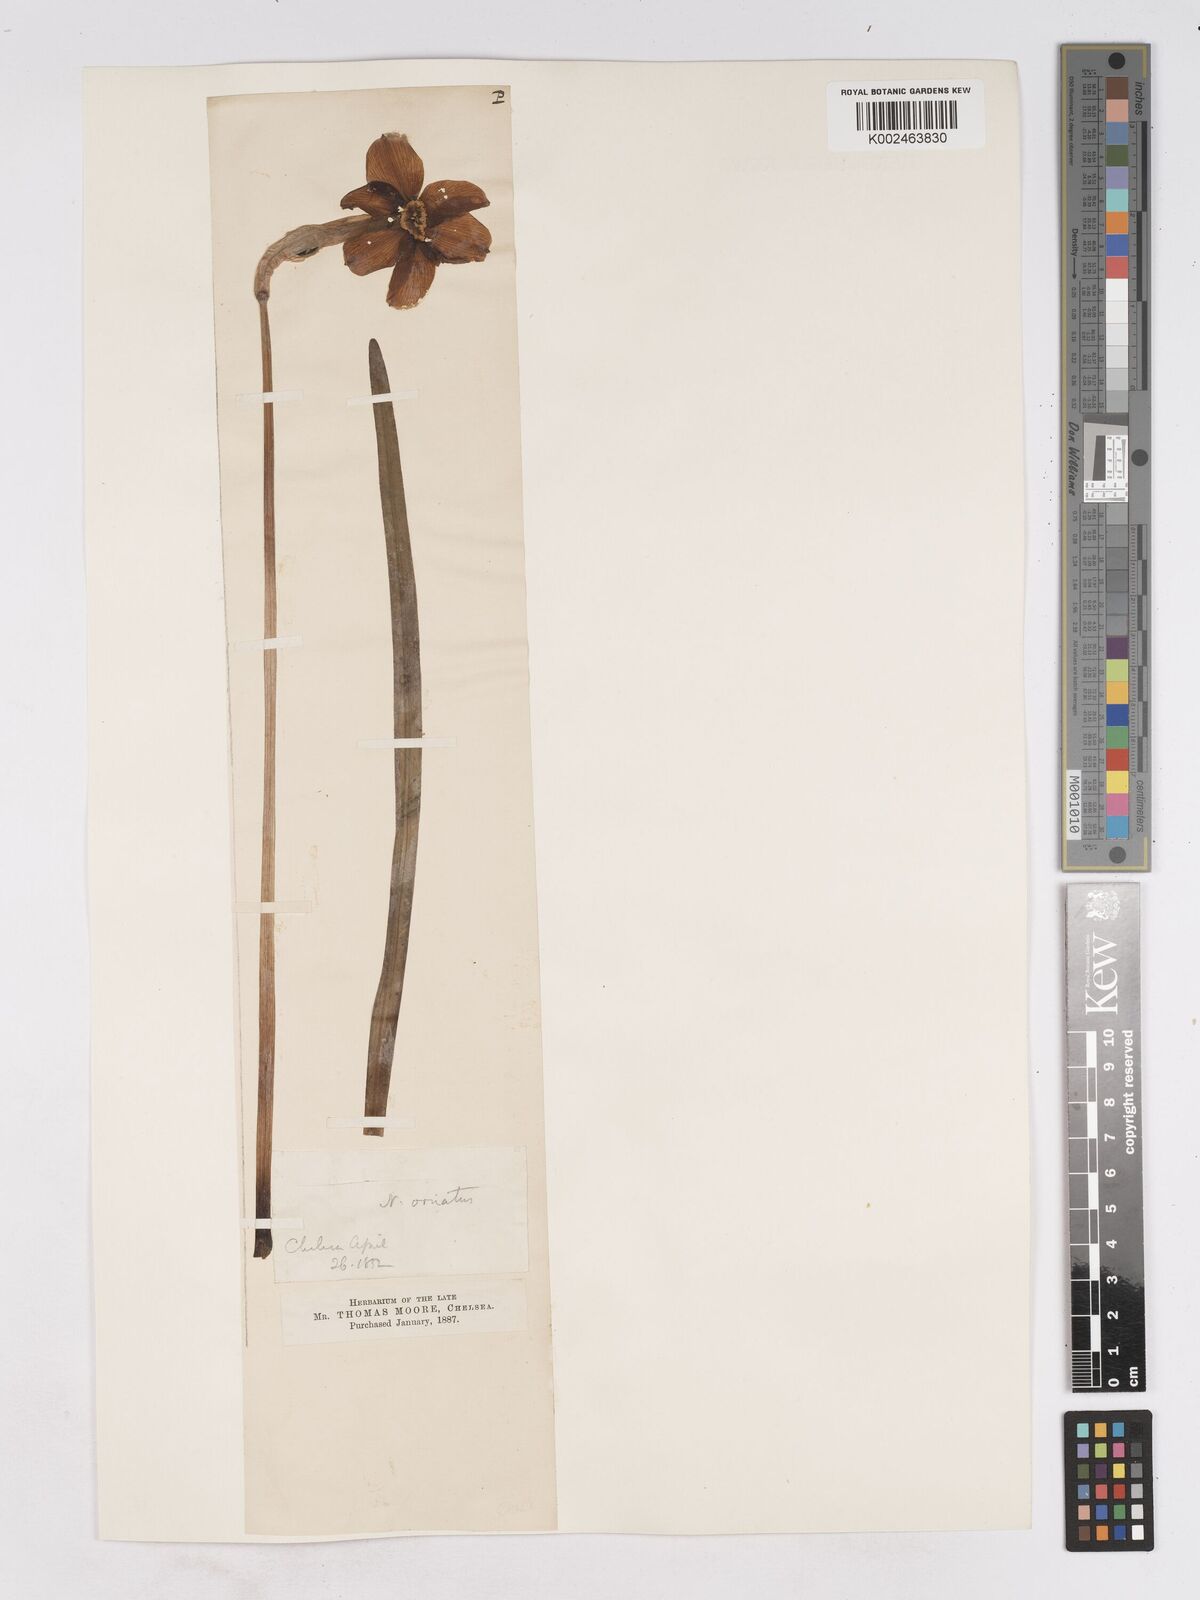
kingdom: Plantae
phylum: Tracheophyta
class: Liliopsida
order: Asparagales
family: Amaryllidaceae
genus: Narcissus
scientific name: Narcissus
